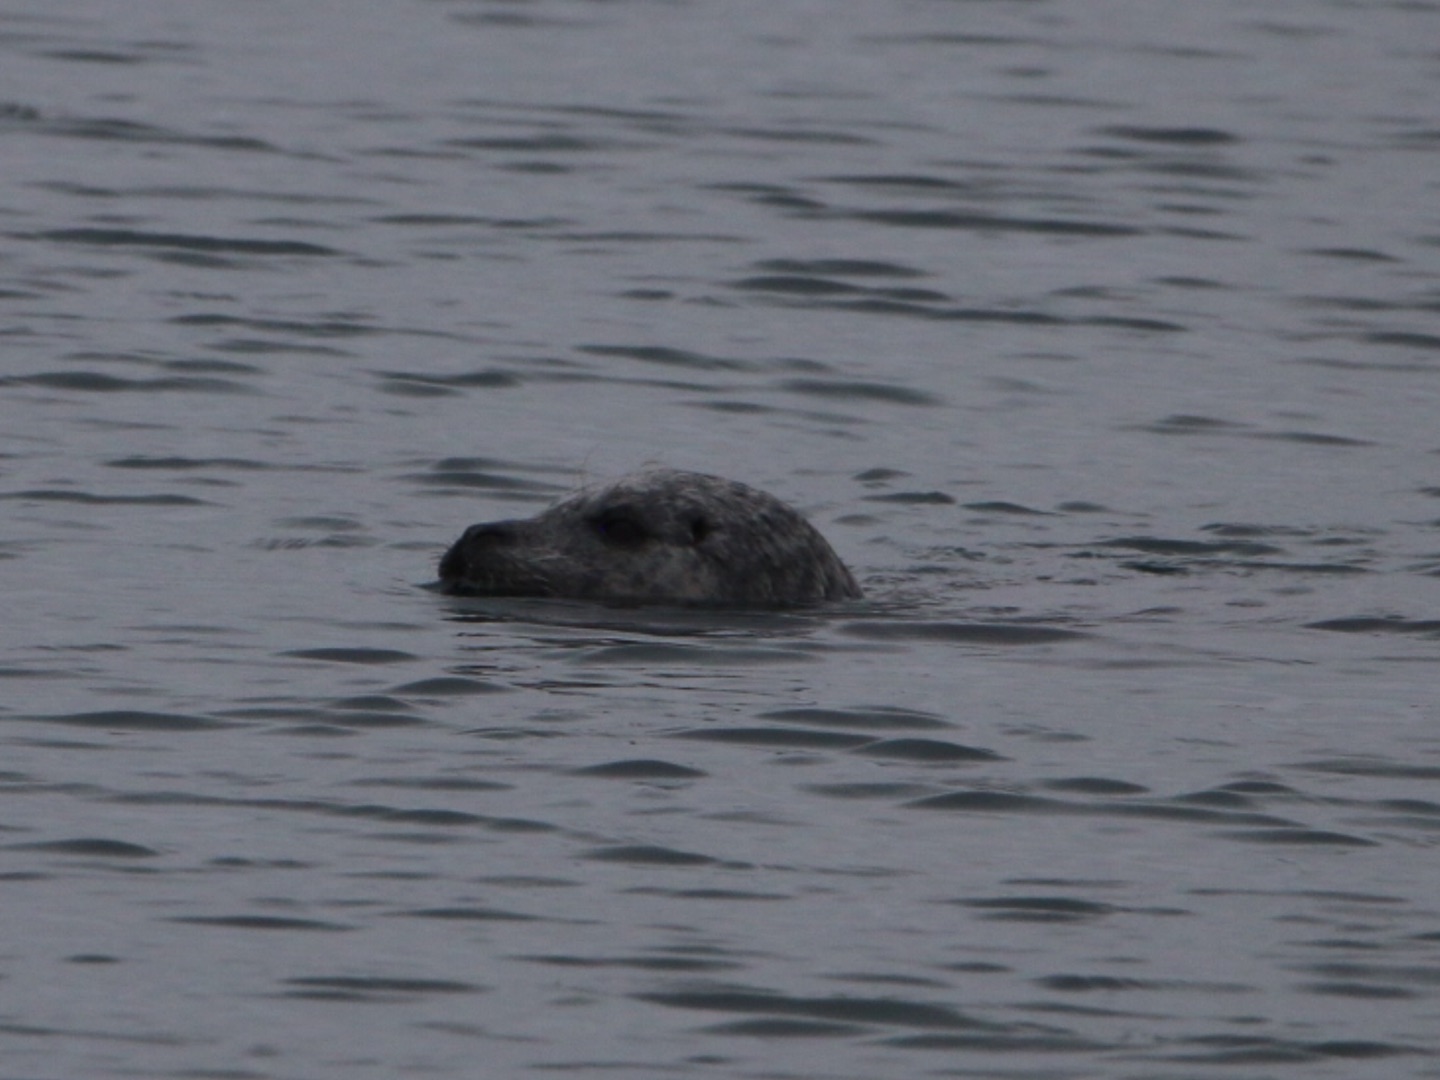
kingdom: Animalia
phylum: Chordata
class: Mammalia
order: Carnivora
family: Phocidae
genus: Phoca
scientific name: Phoca vitulina
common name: Spættet sæl
